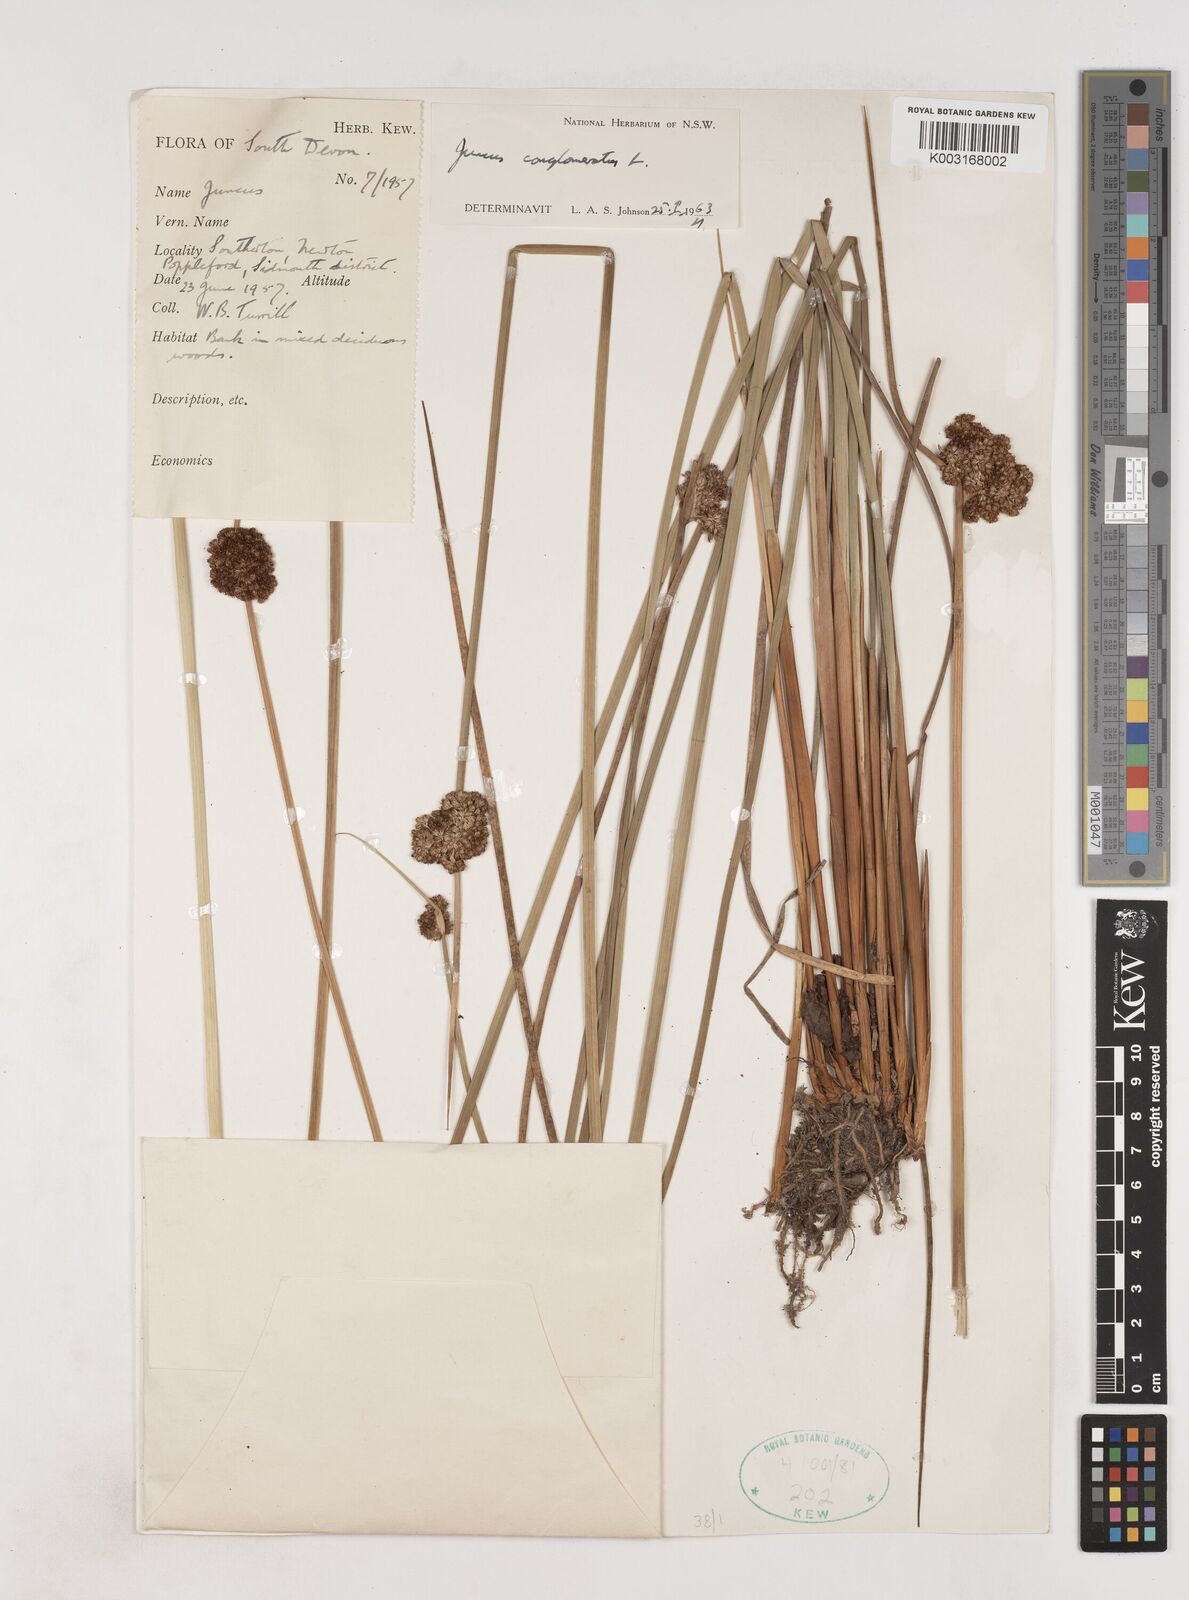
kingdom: Plantae
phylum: Tracheophyta
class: Liliopsida
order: Poales
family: Juncaceae
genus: Juncus
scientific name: Juncus conglomeratus
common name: Compact rush
